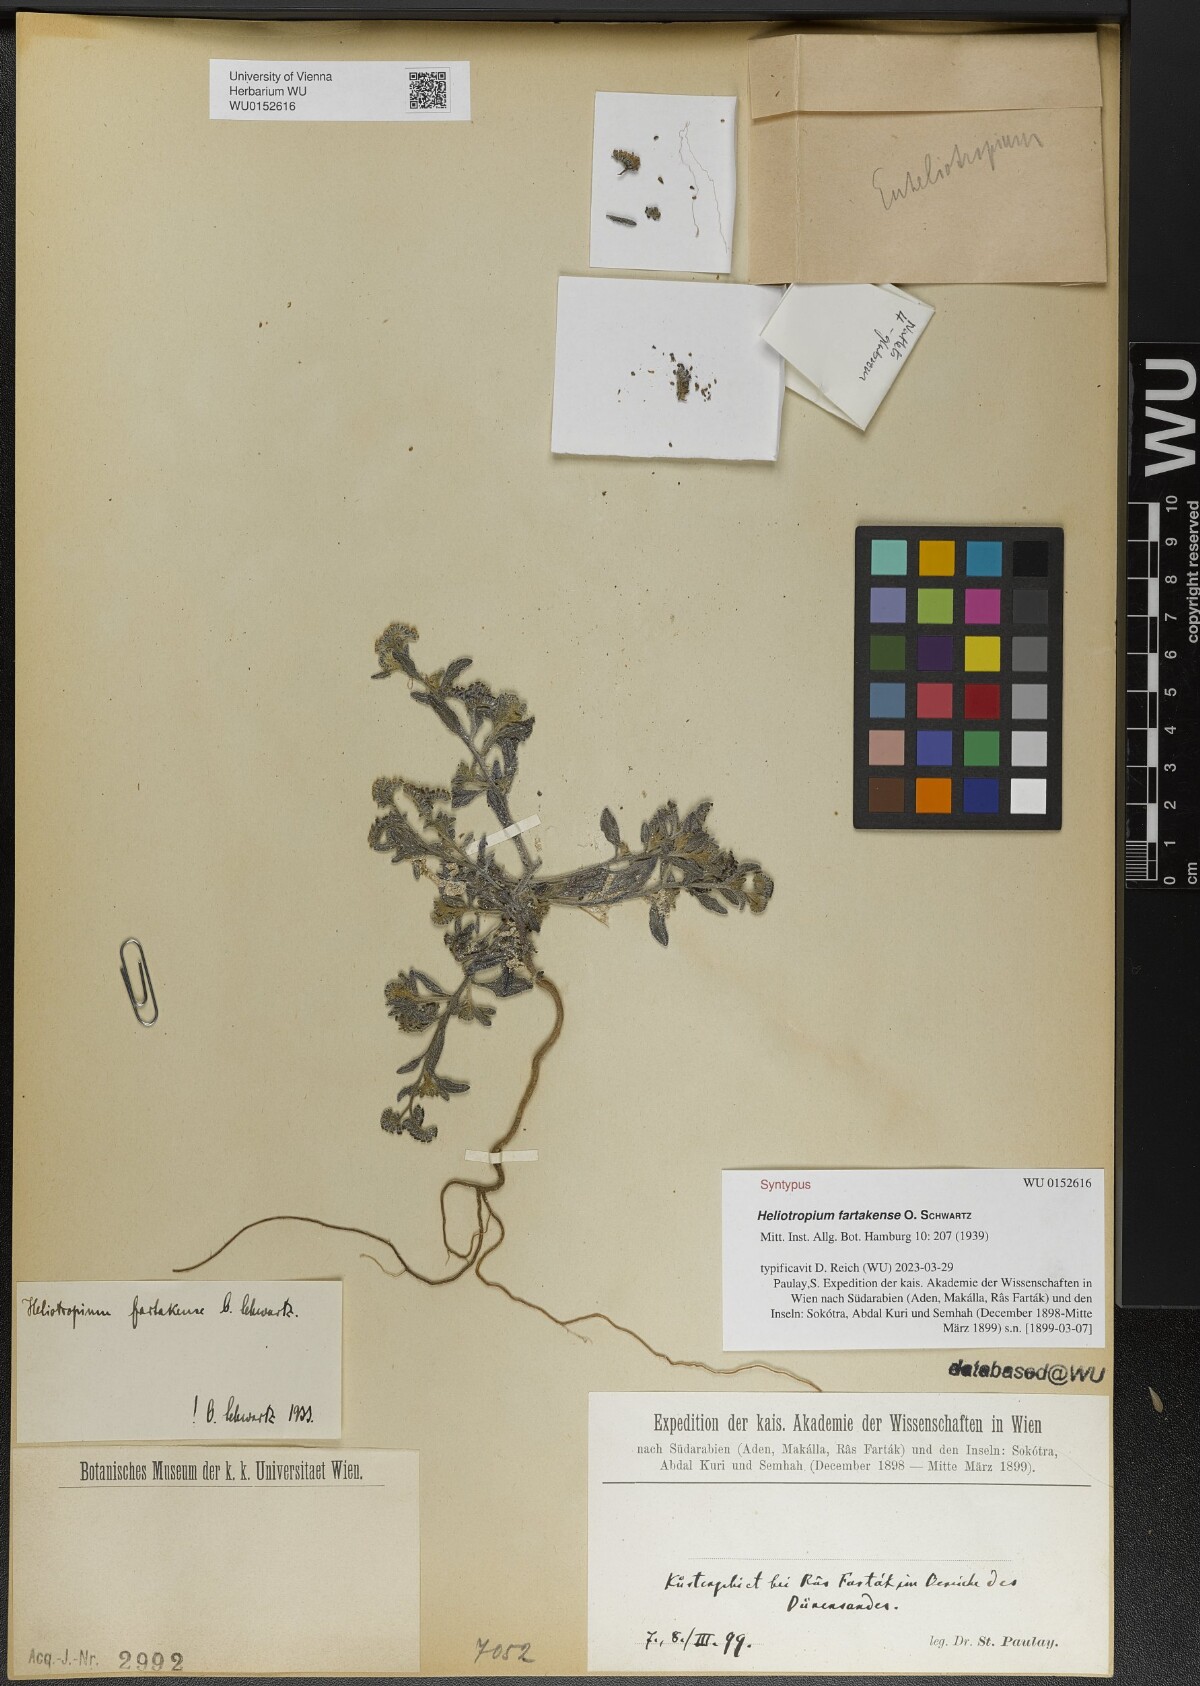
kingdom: Plantae
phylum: Tracheophyta
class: Magnoliopsida
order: Boraginales
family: Heliotropiaceae
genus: Heliotropium
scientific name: Heliotropium bacciferum
